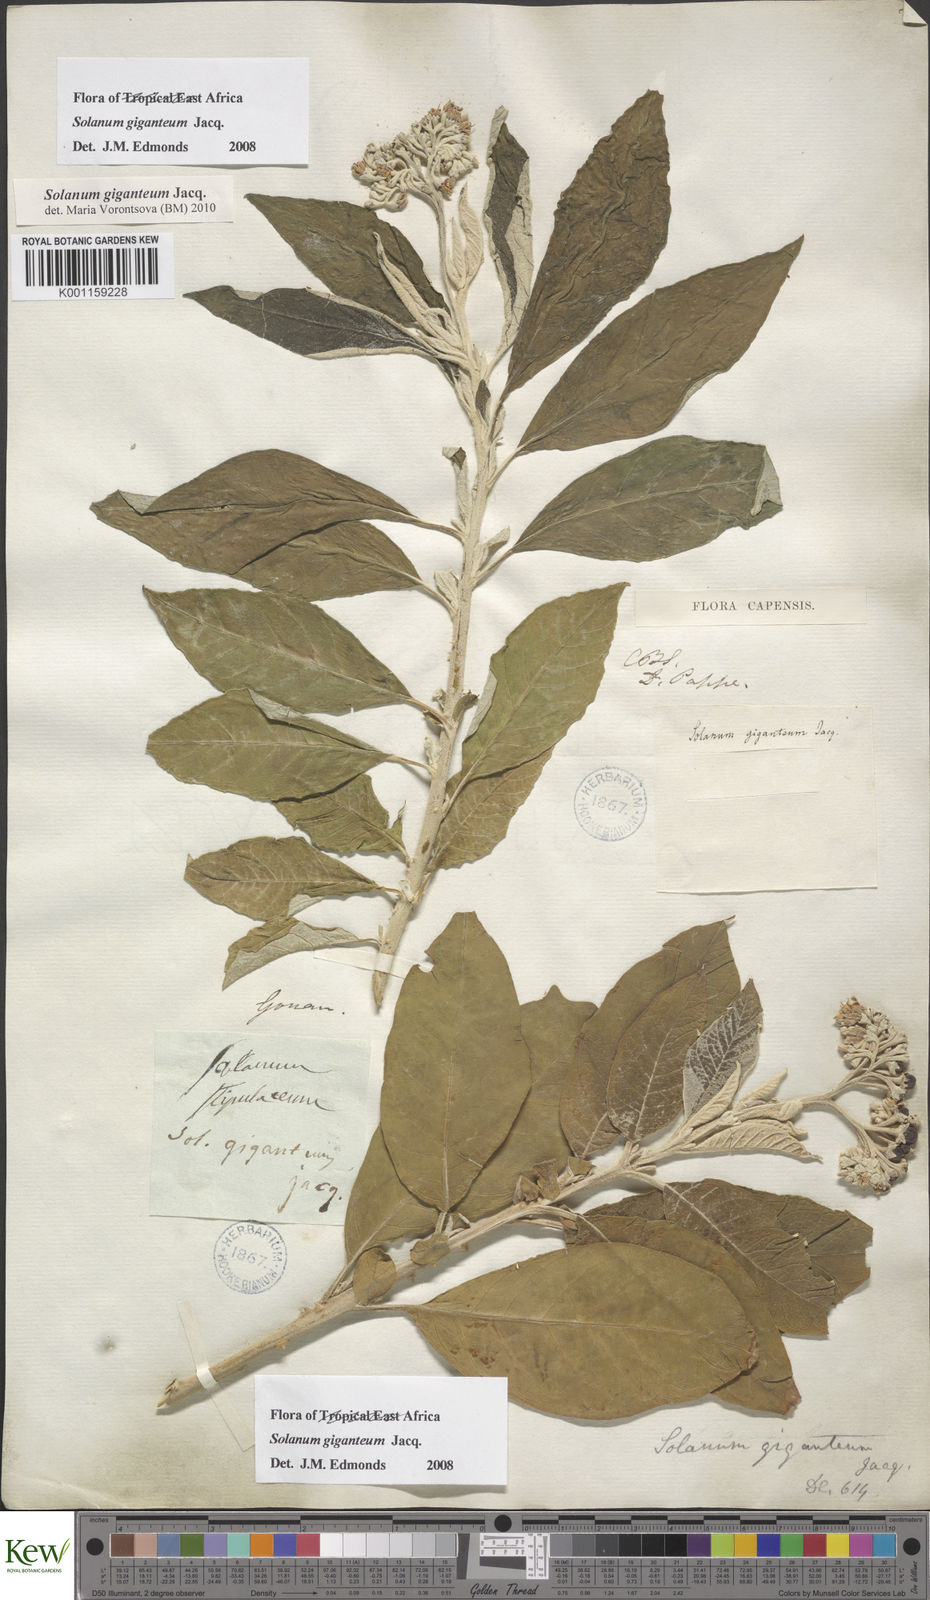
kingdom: Plantae
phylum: Tracheophyta
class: Magnoliopsida
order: Solanales
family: Solanaceae
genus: Solanum
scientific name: Solanum giganteum
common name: Healing-leaf-tree
